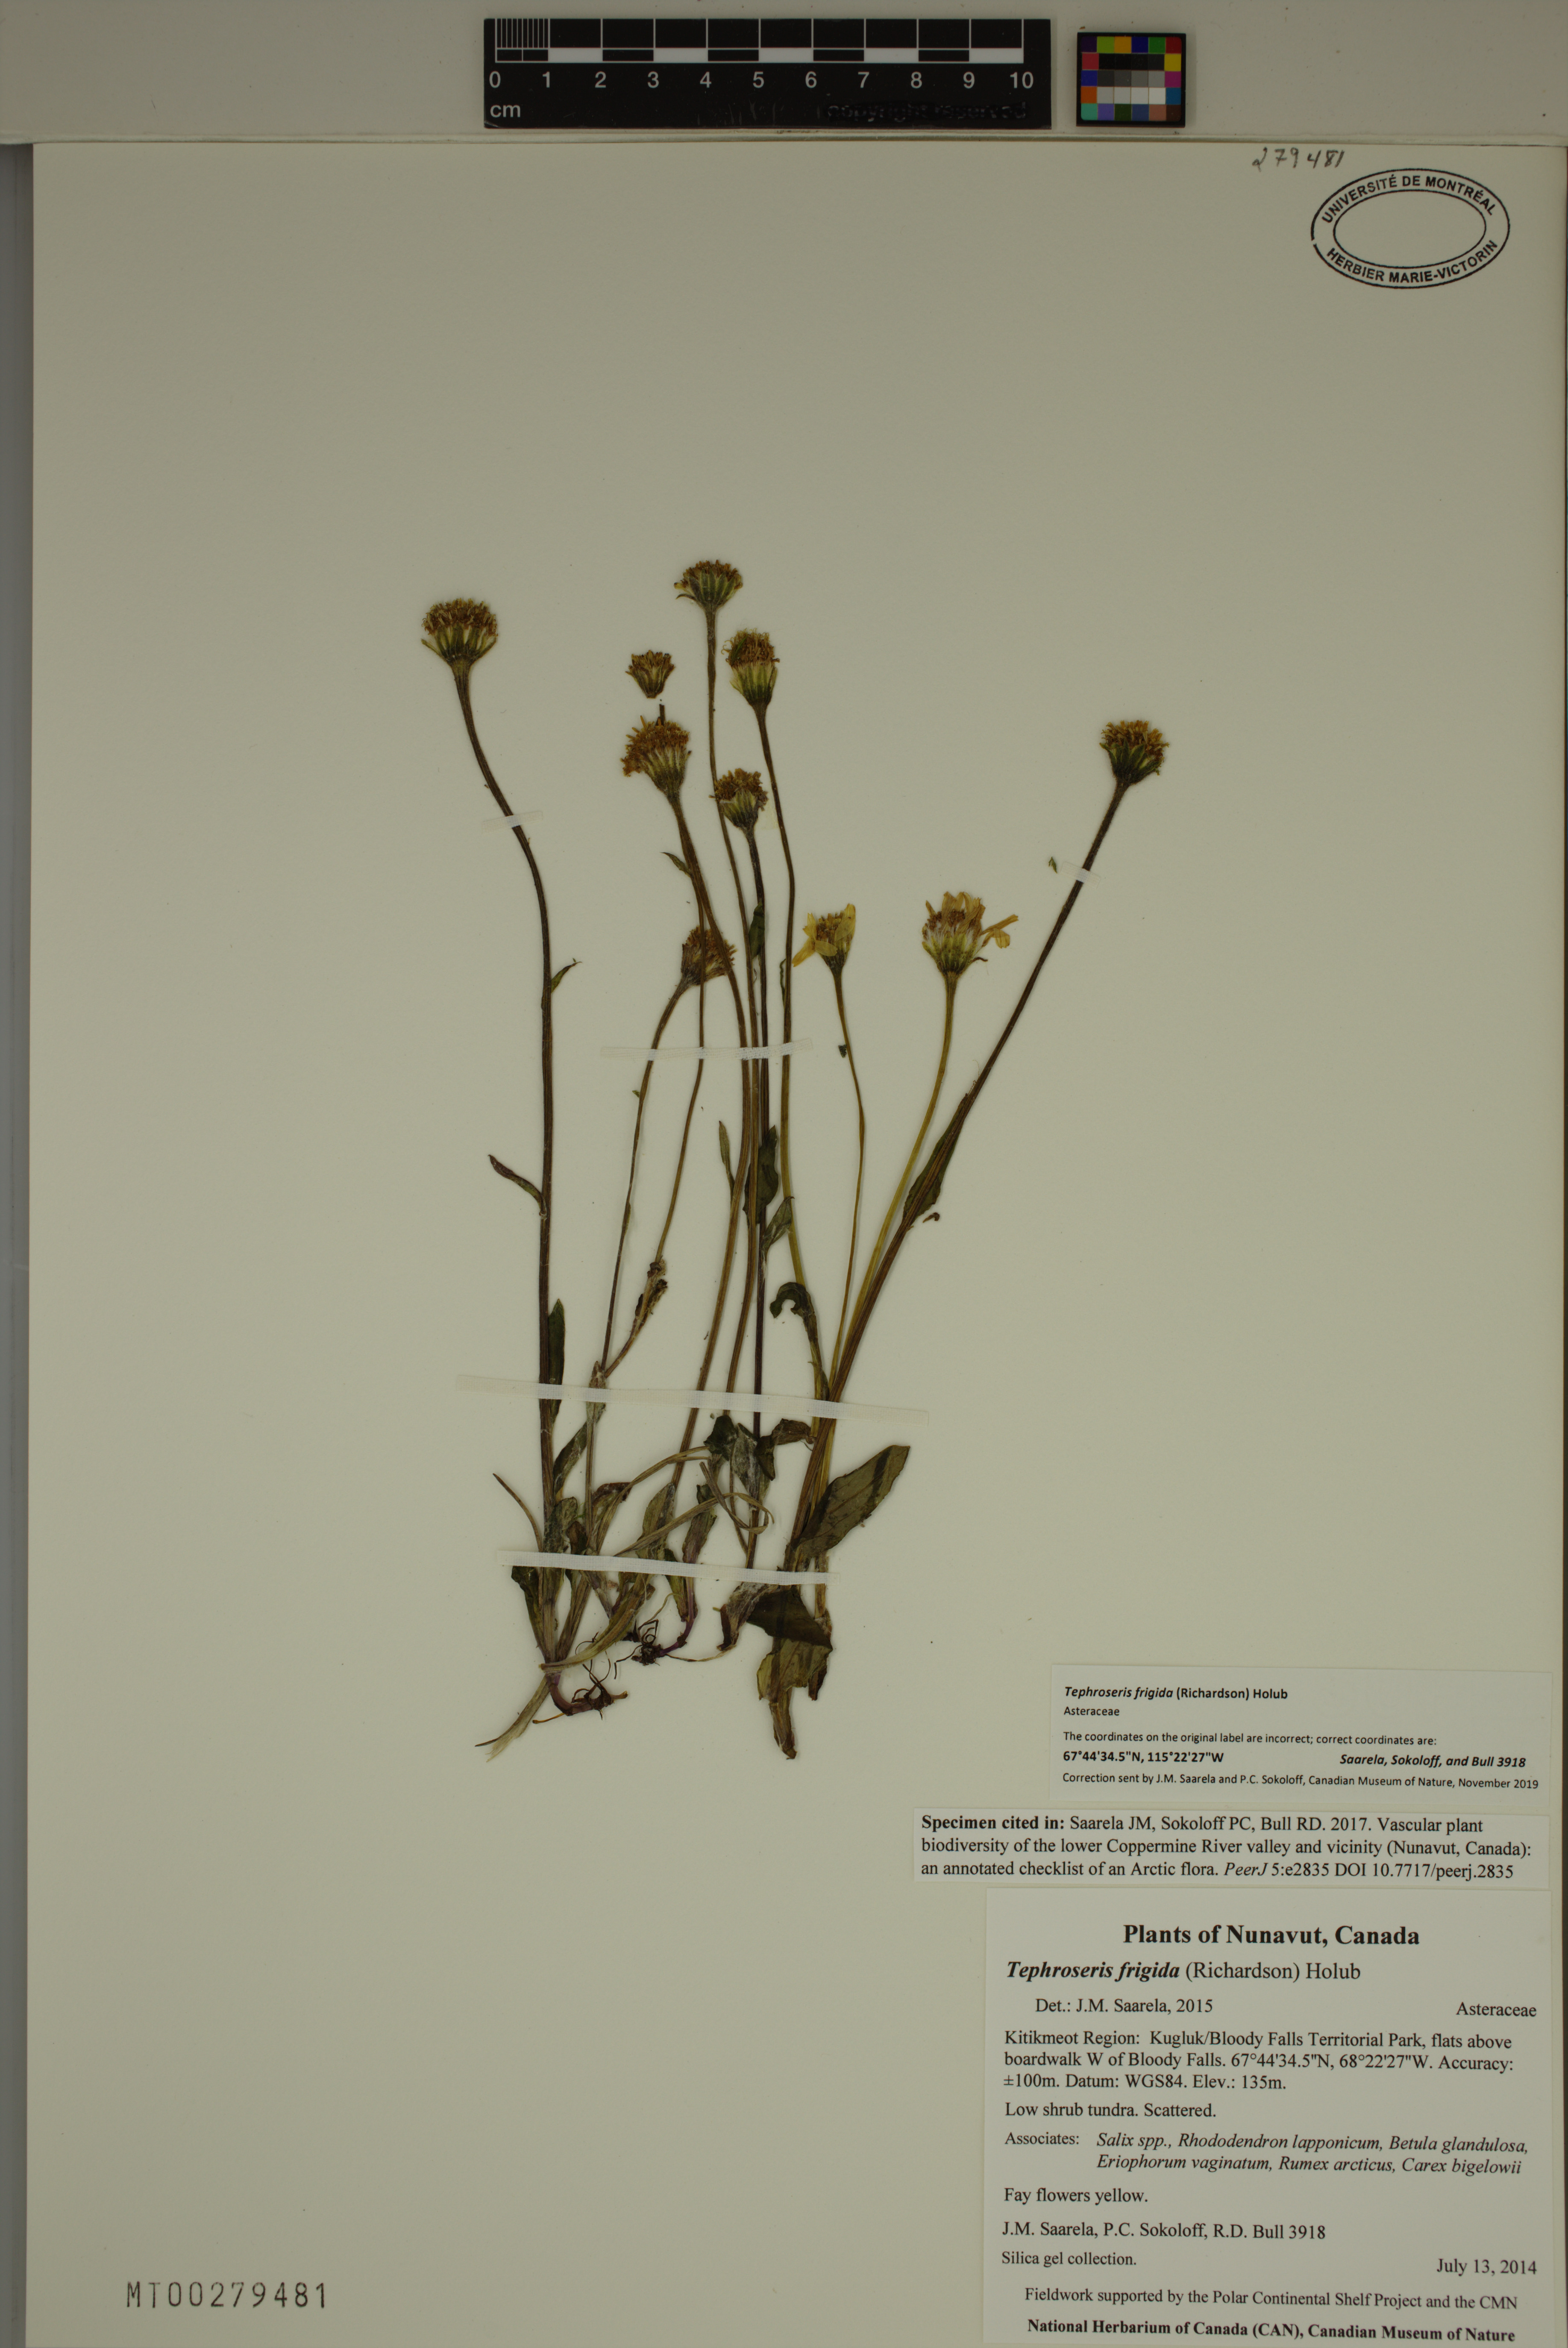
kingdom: Plantae
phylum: Tracheophyta
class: Magnoliopsida
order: Asterales
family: Asteraceae
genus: Tephroseris
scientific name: Tephroseris frigida
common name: Arctic groundsel
